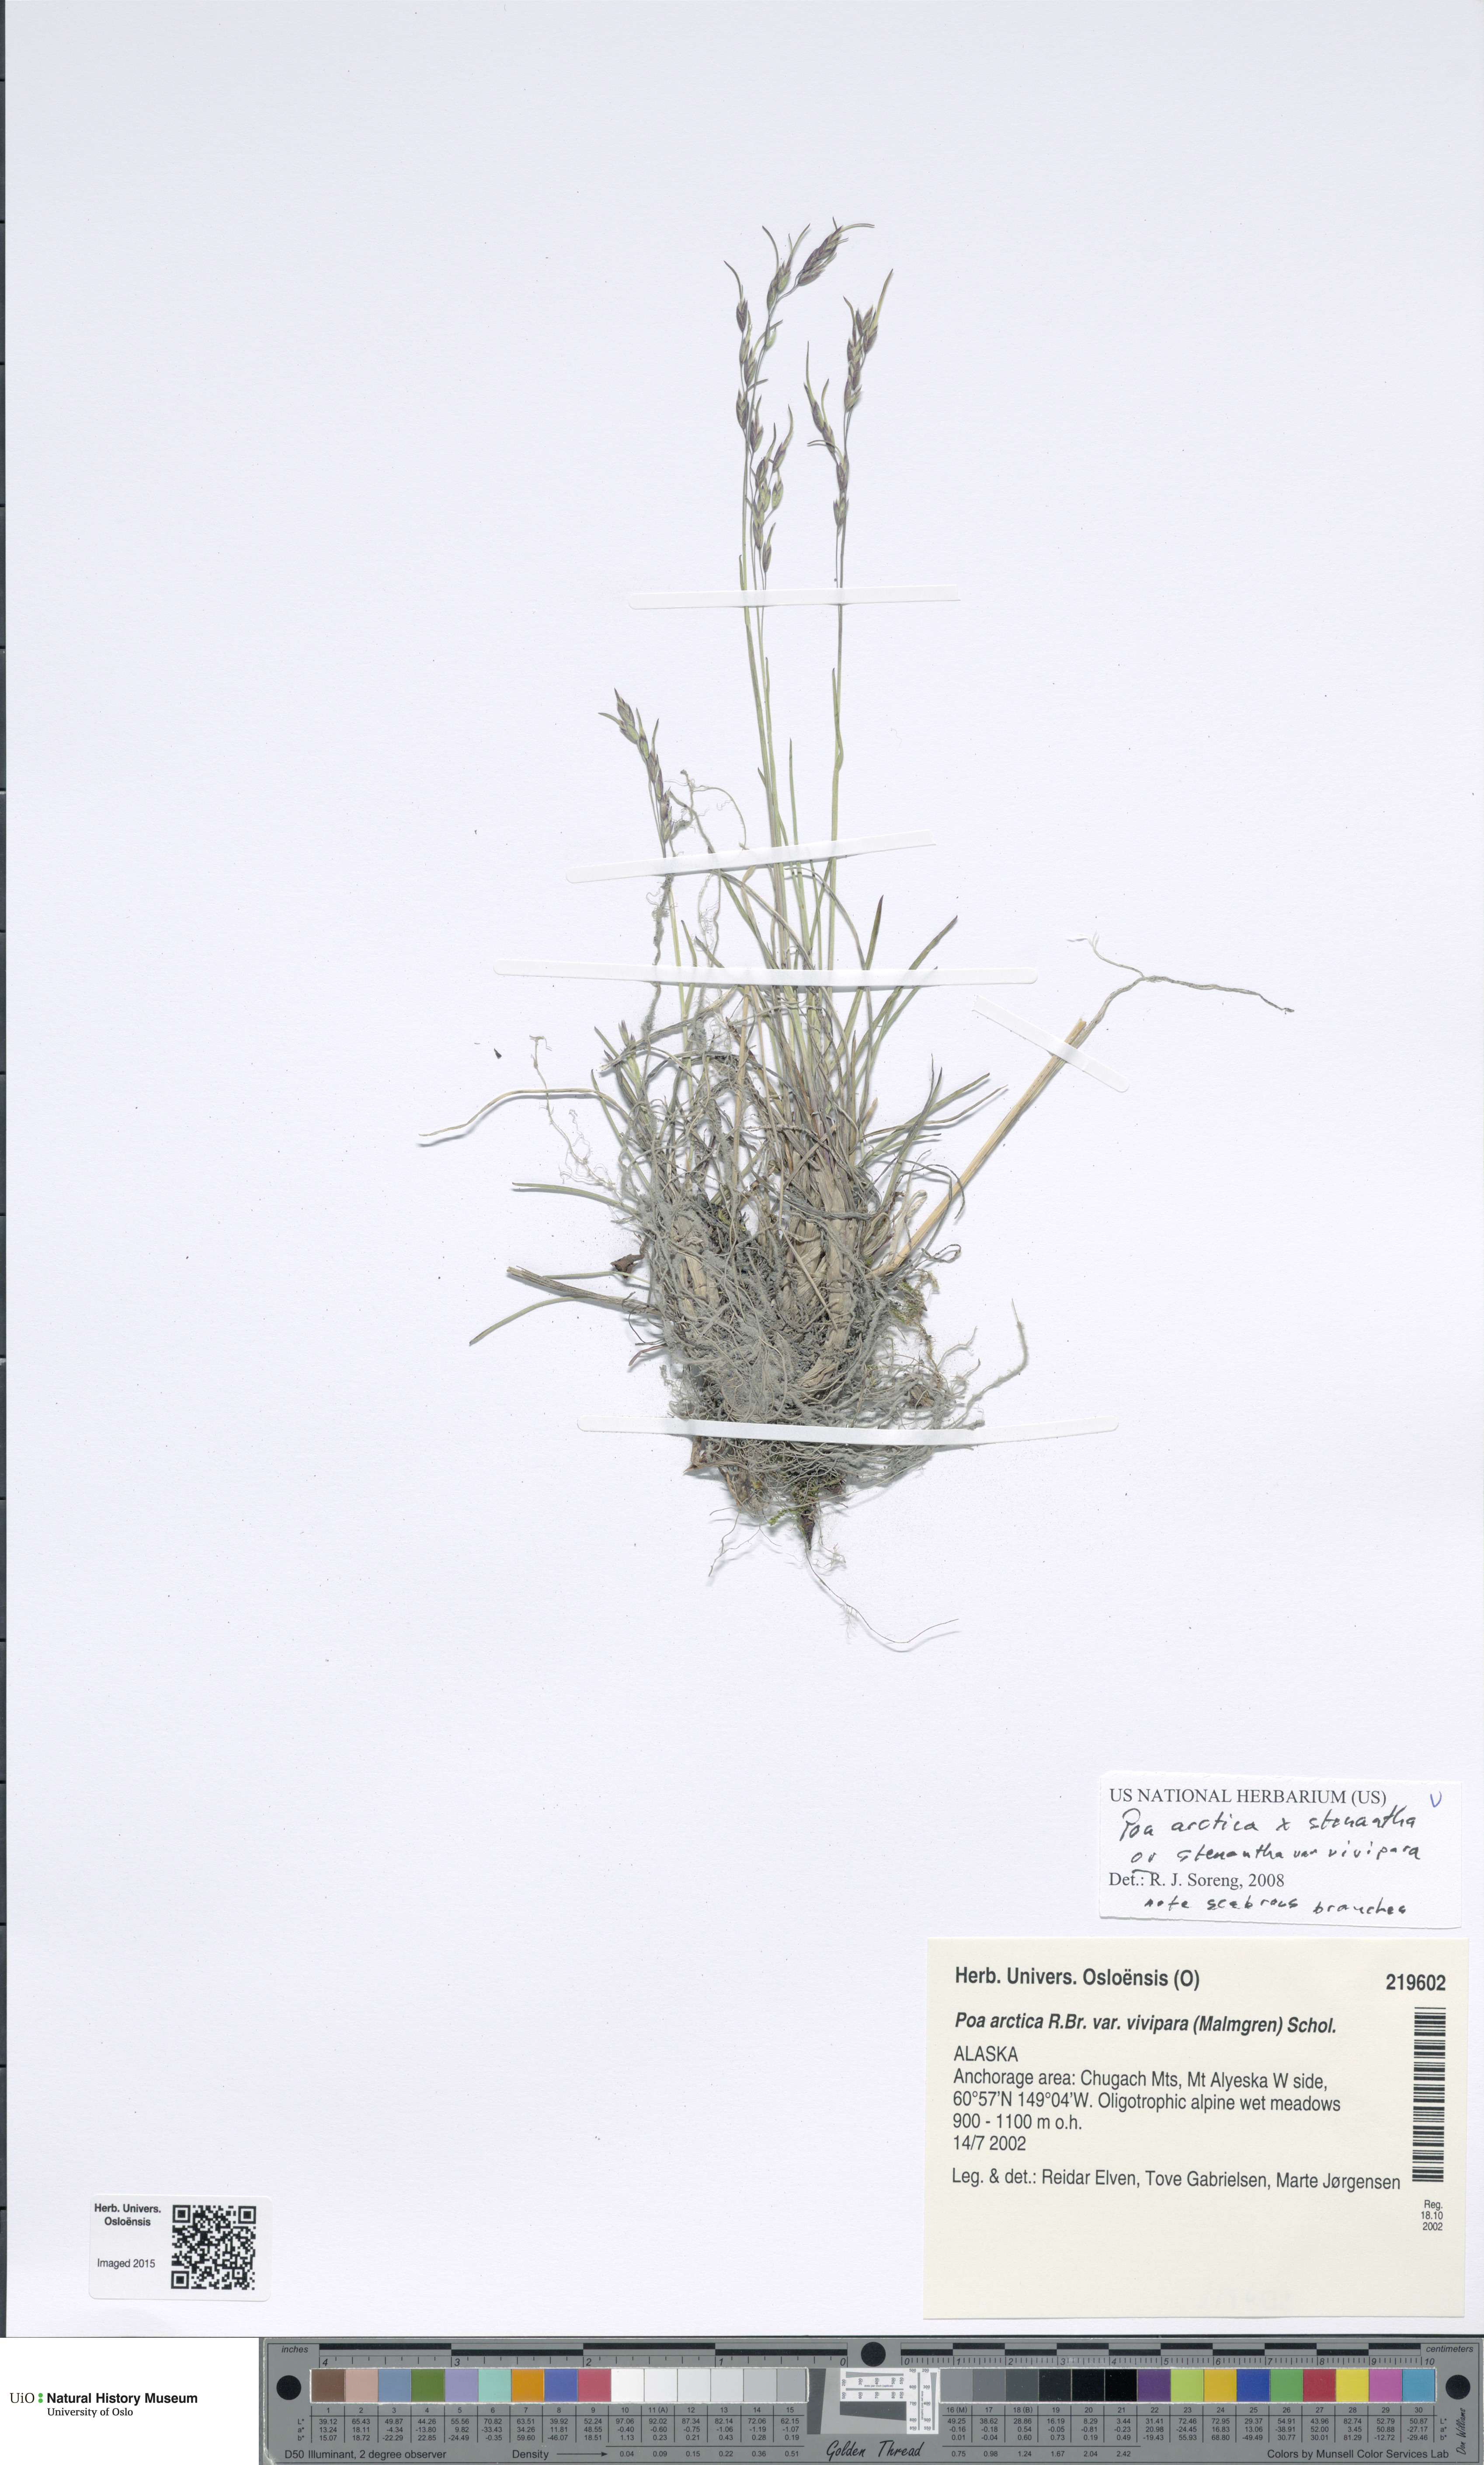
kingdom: Plantae
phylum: Tracheophyta
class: Liliopsida
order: Poales
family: Poaceae
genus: Poa
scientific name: Poa
